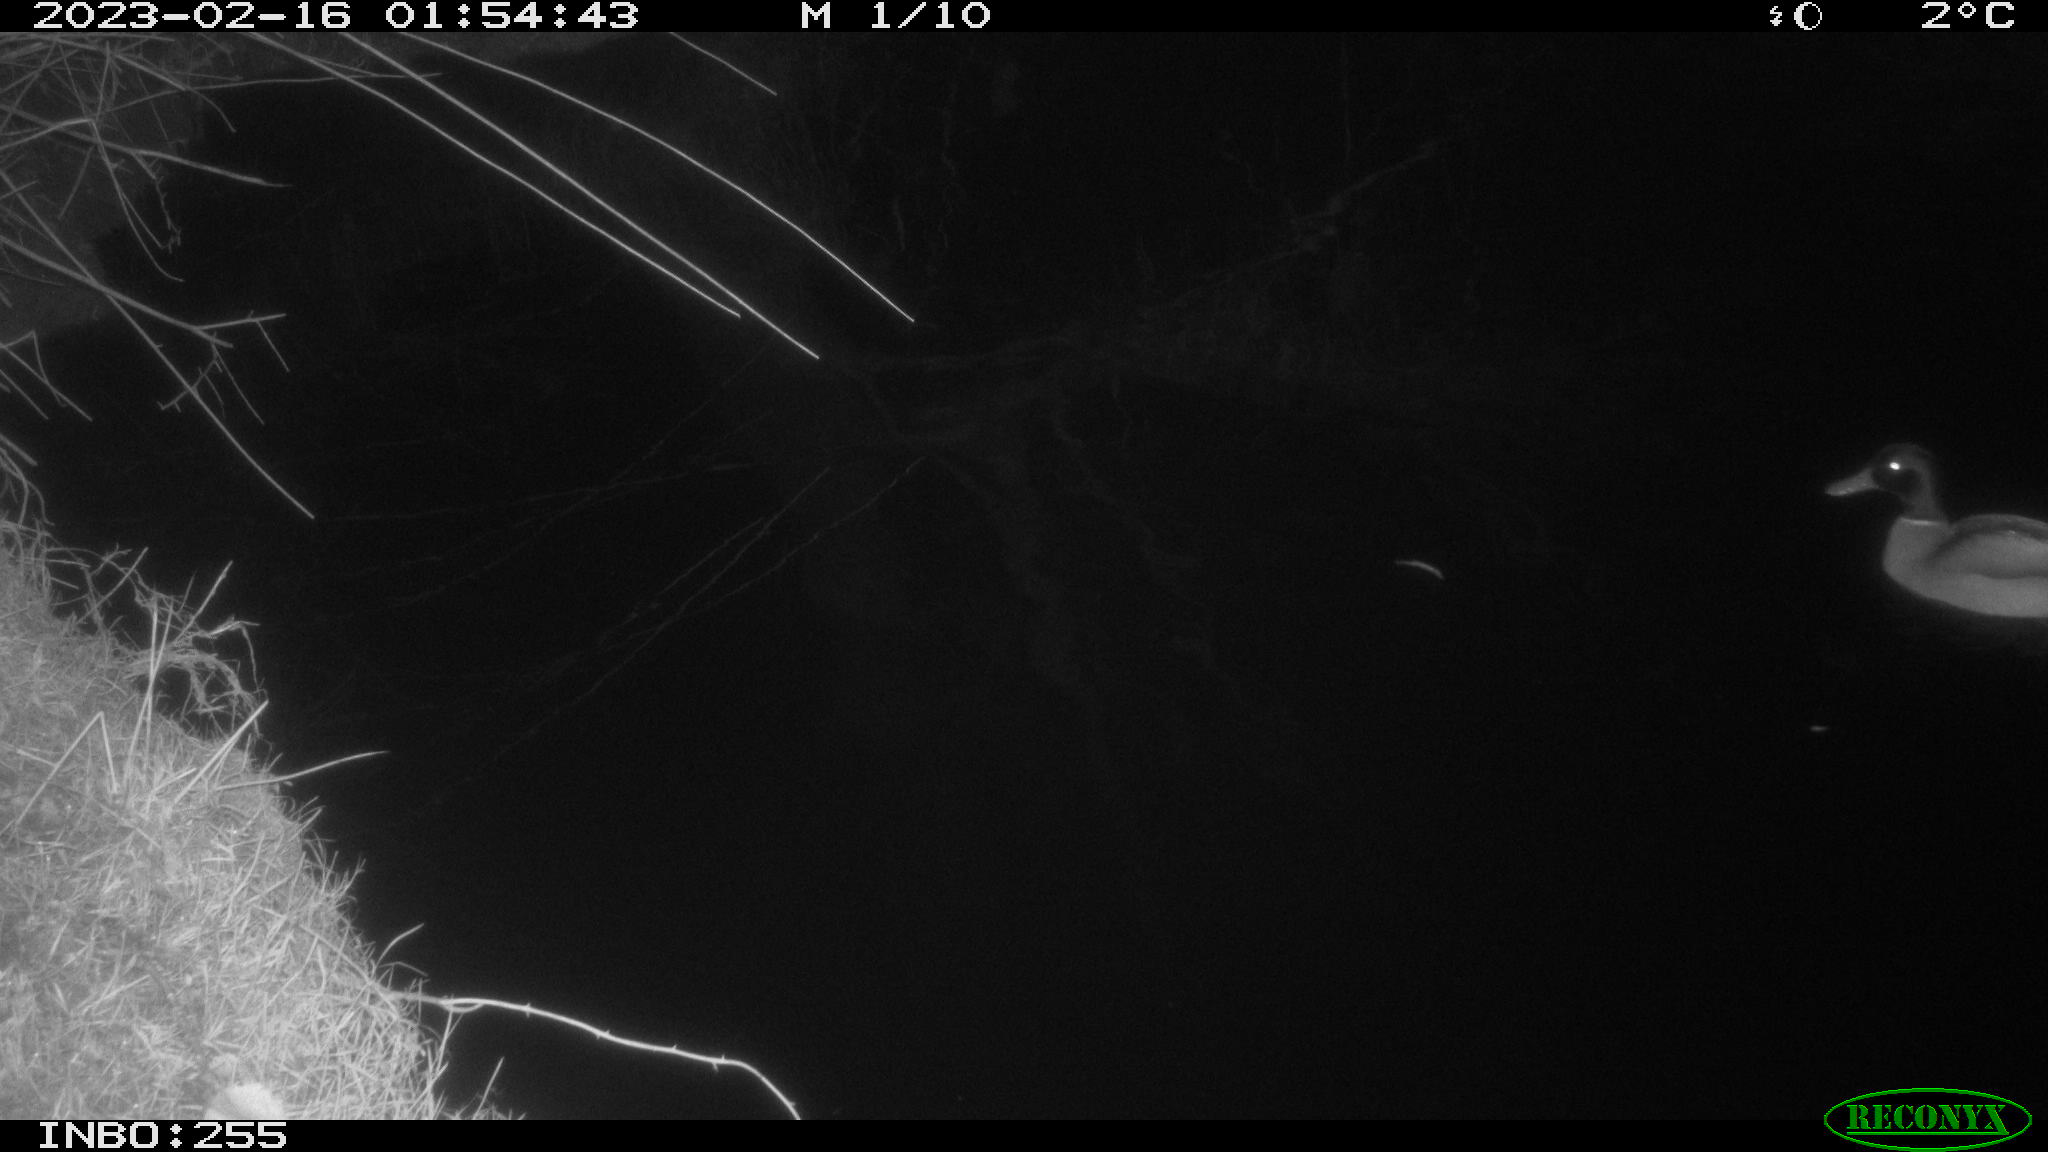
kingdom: Animalia
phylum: Chordata
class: Aves
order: Anseriformes
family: Anatidae
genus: Anas
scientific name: Anas
